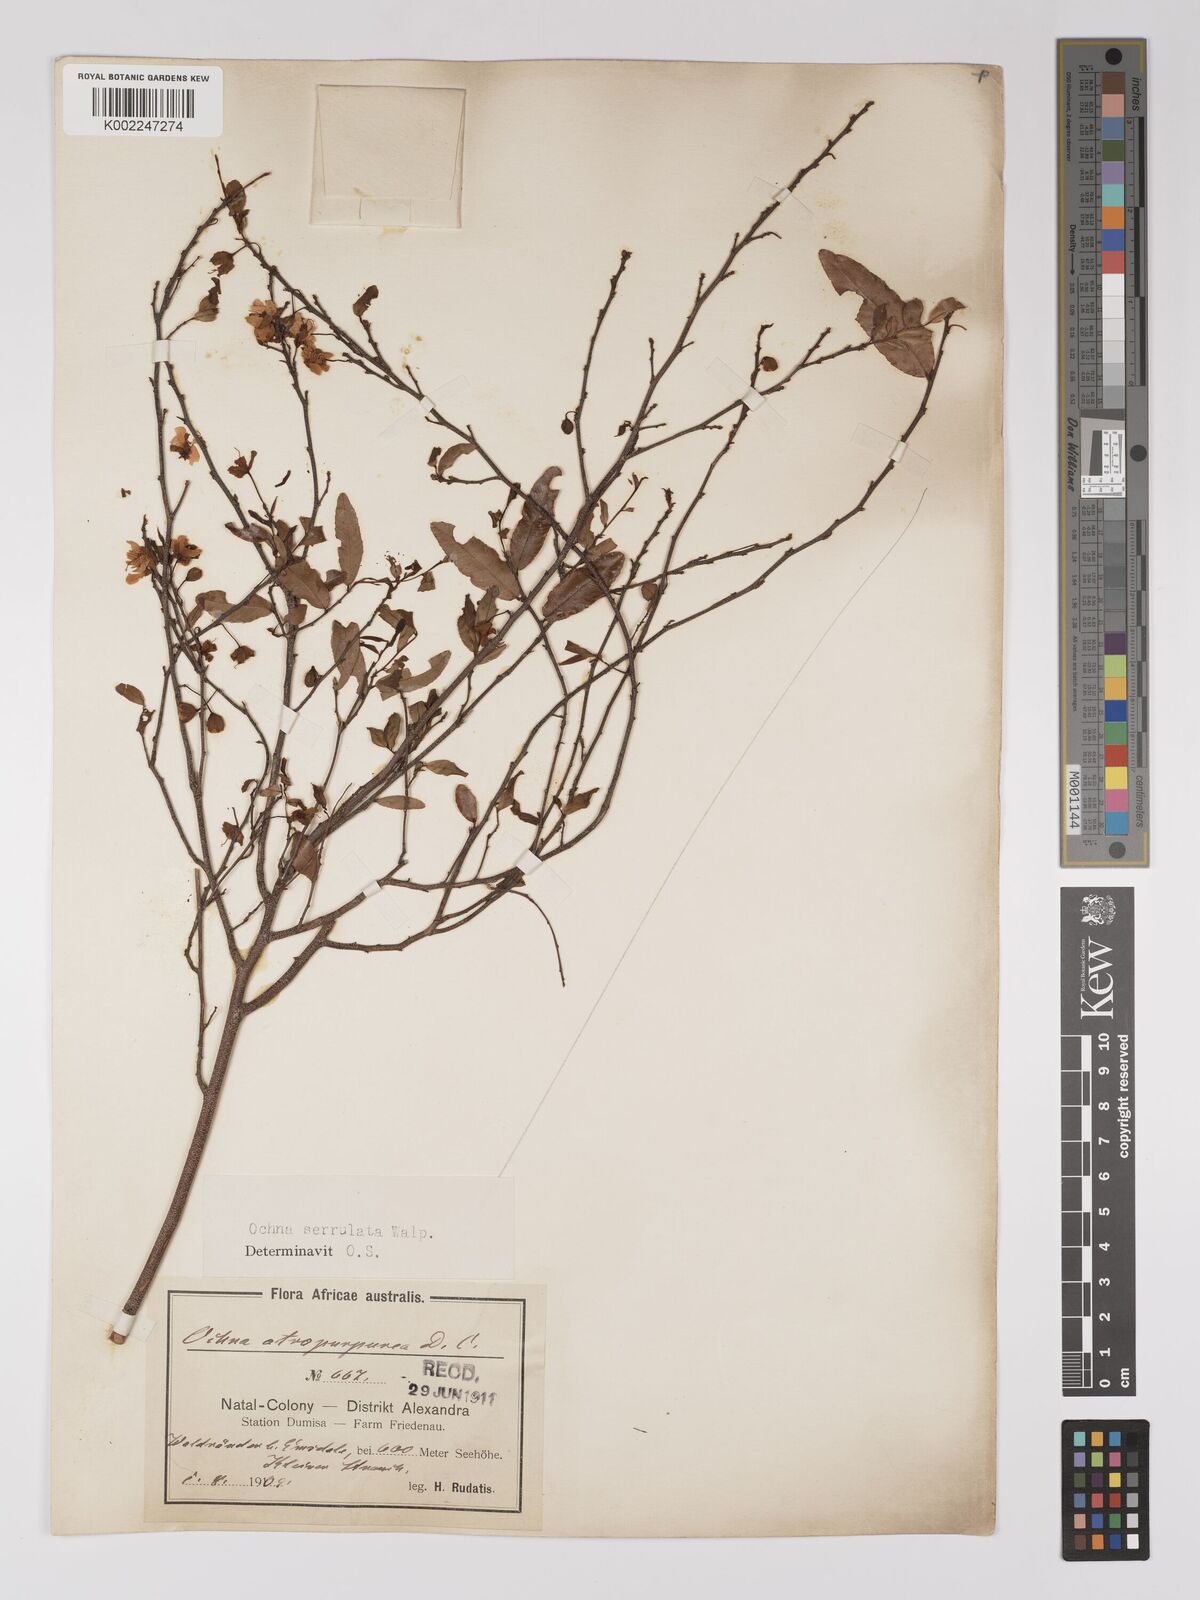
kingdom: Plantae
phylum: Tracheophyta
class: Magnoliopsida
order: Malpighiales
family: Ochnaceae
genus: Ochna
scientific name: Ochna gamostigmata
